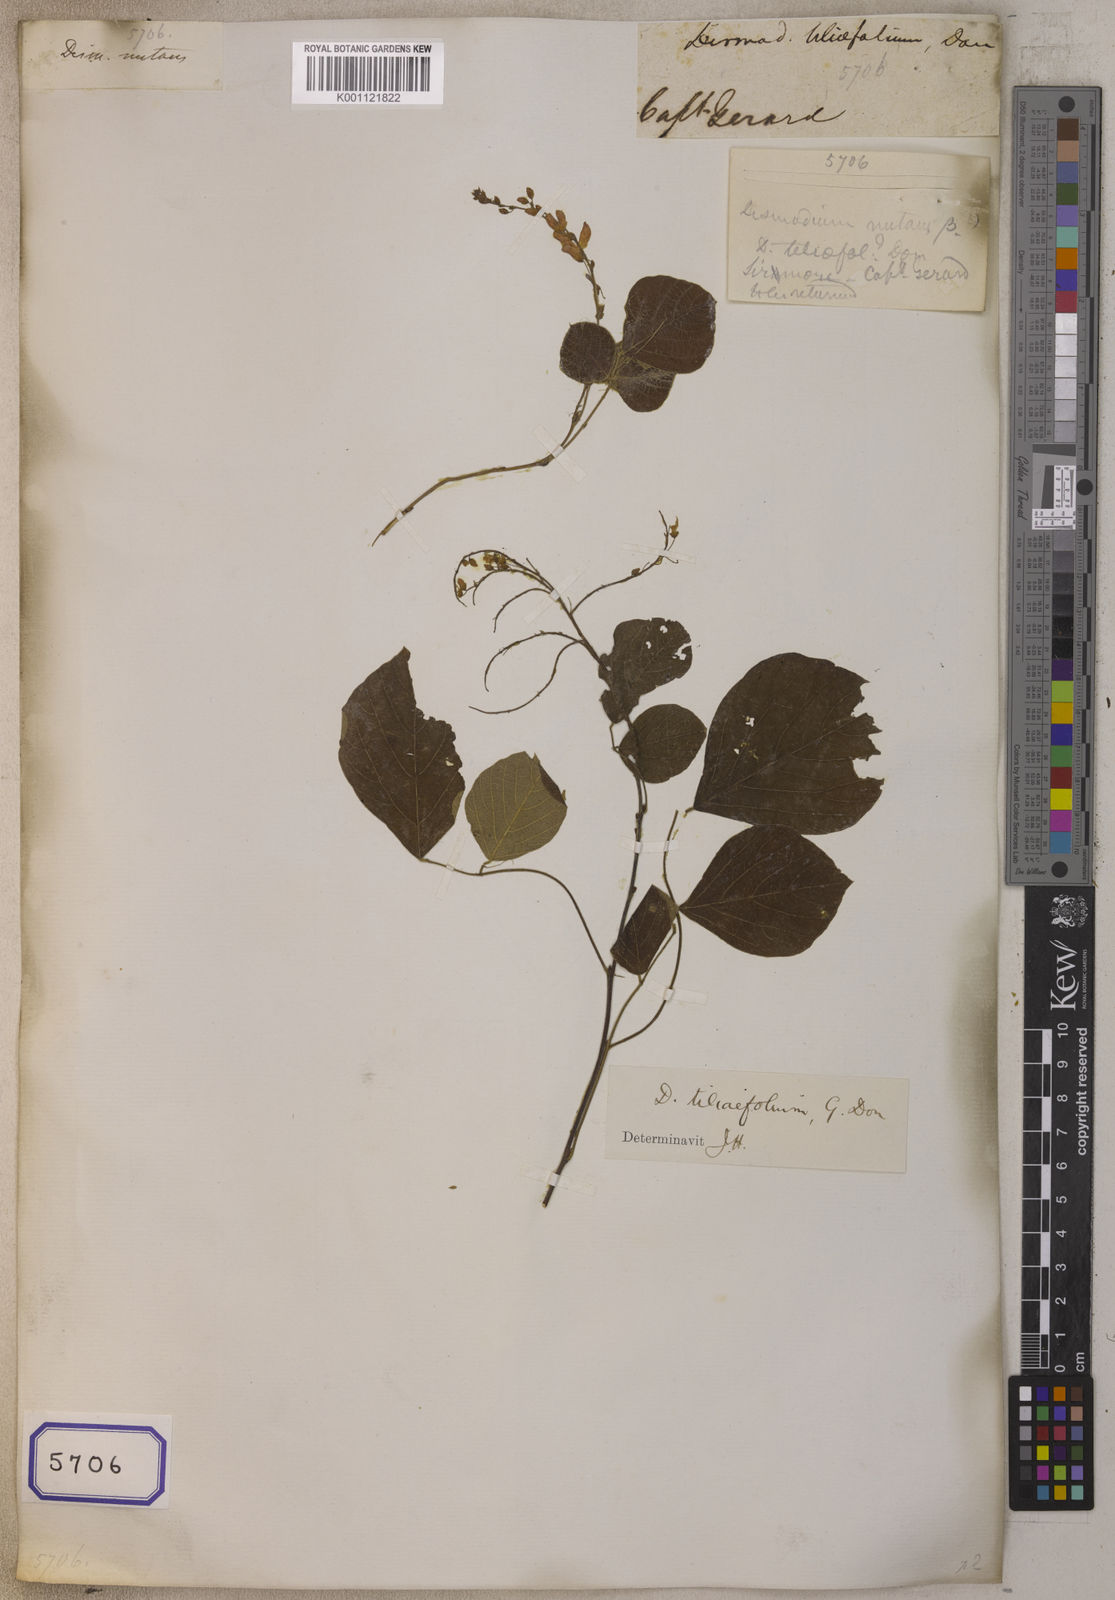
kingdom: Plantae
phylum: Tracheophyta
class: Magnoliopsida
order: Fabales
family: Fabaceae
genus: Desmodium
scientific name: Desmodium
